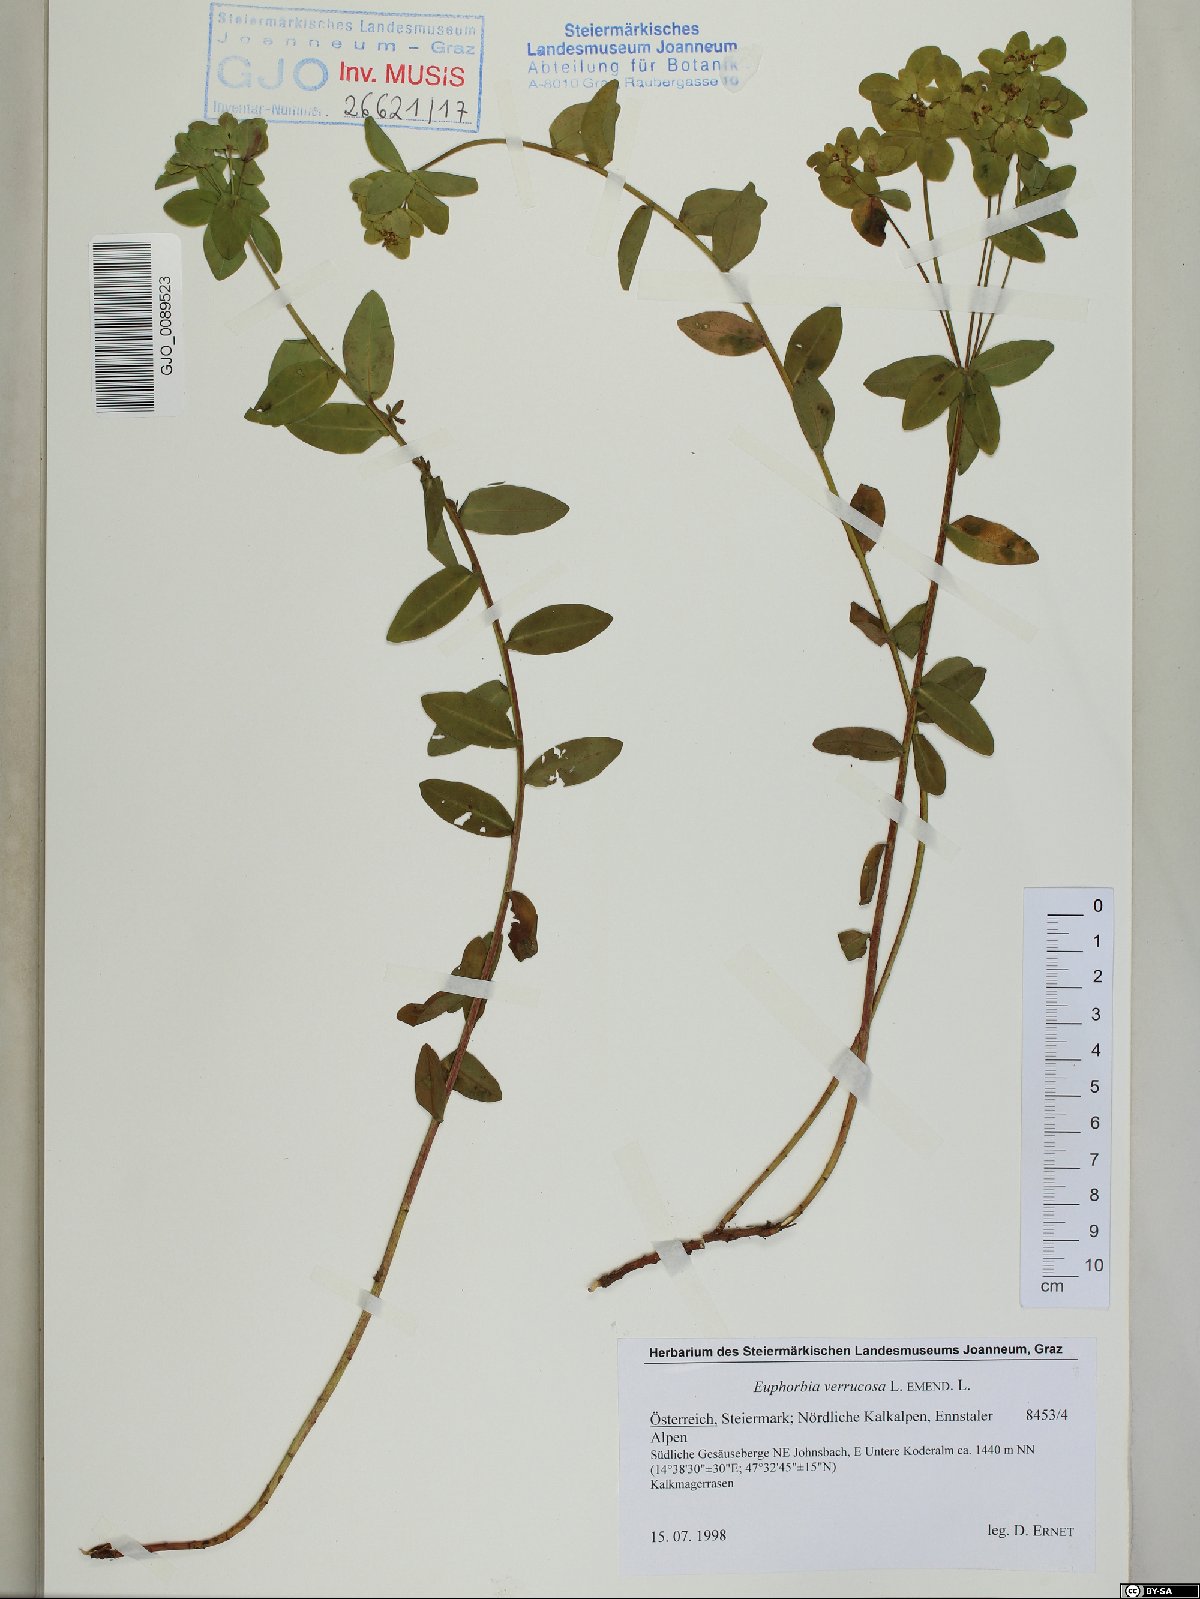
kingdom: Plantae
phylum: Tracheophyta
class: Magnoliopsida
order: Malpighiales
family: Euphorbiaceae
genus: Euphorbia
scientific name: Euphorbia verrucosa
